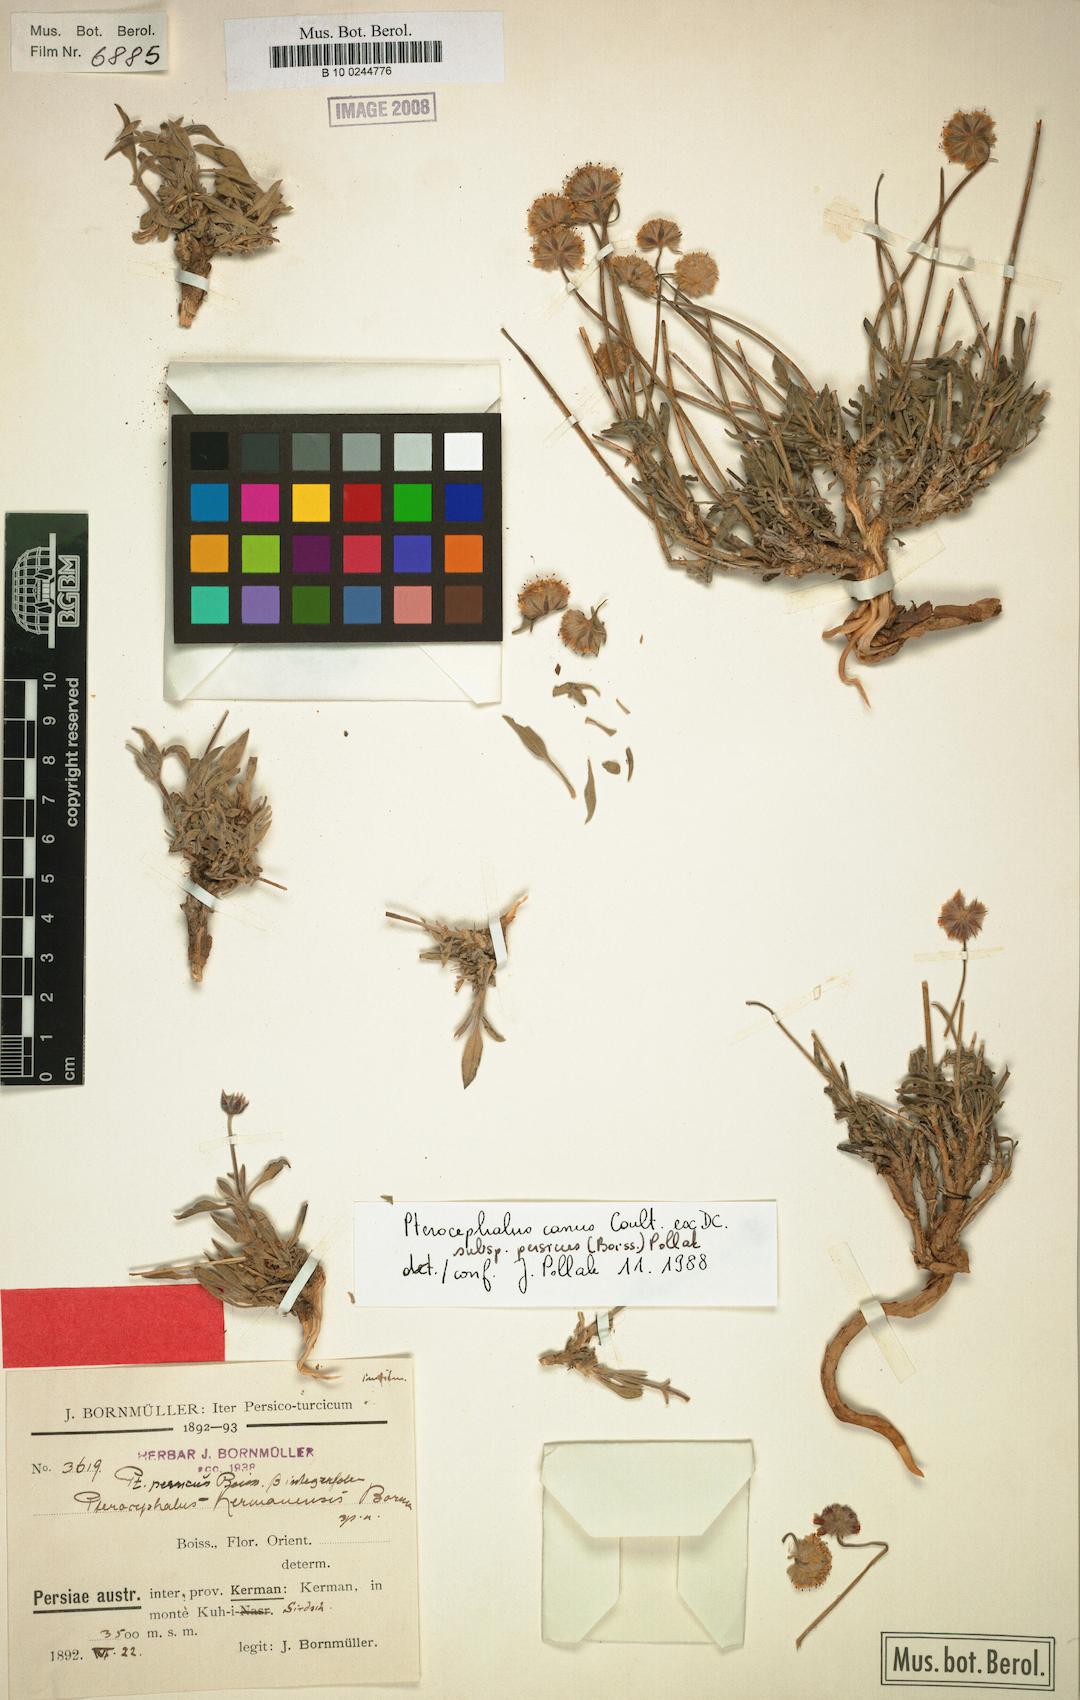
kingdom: Plantae
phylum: Tracheophyta
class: Magnoliopsida
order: Dipsacales
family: Caprifoliaceae
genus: Pterocephalus
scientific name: Pterocephalus canus
